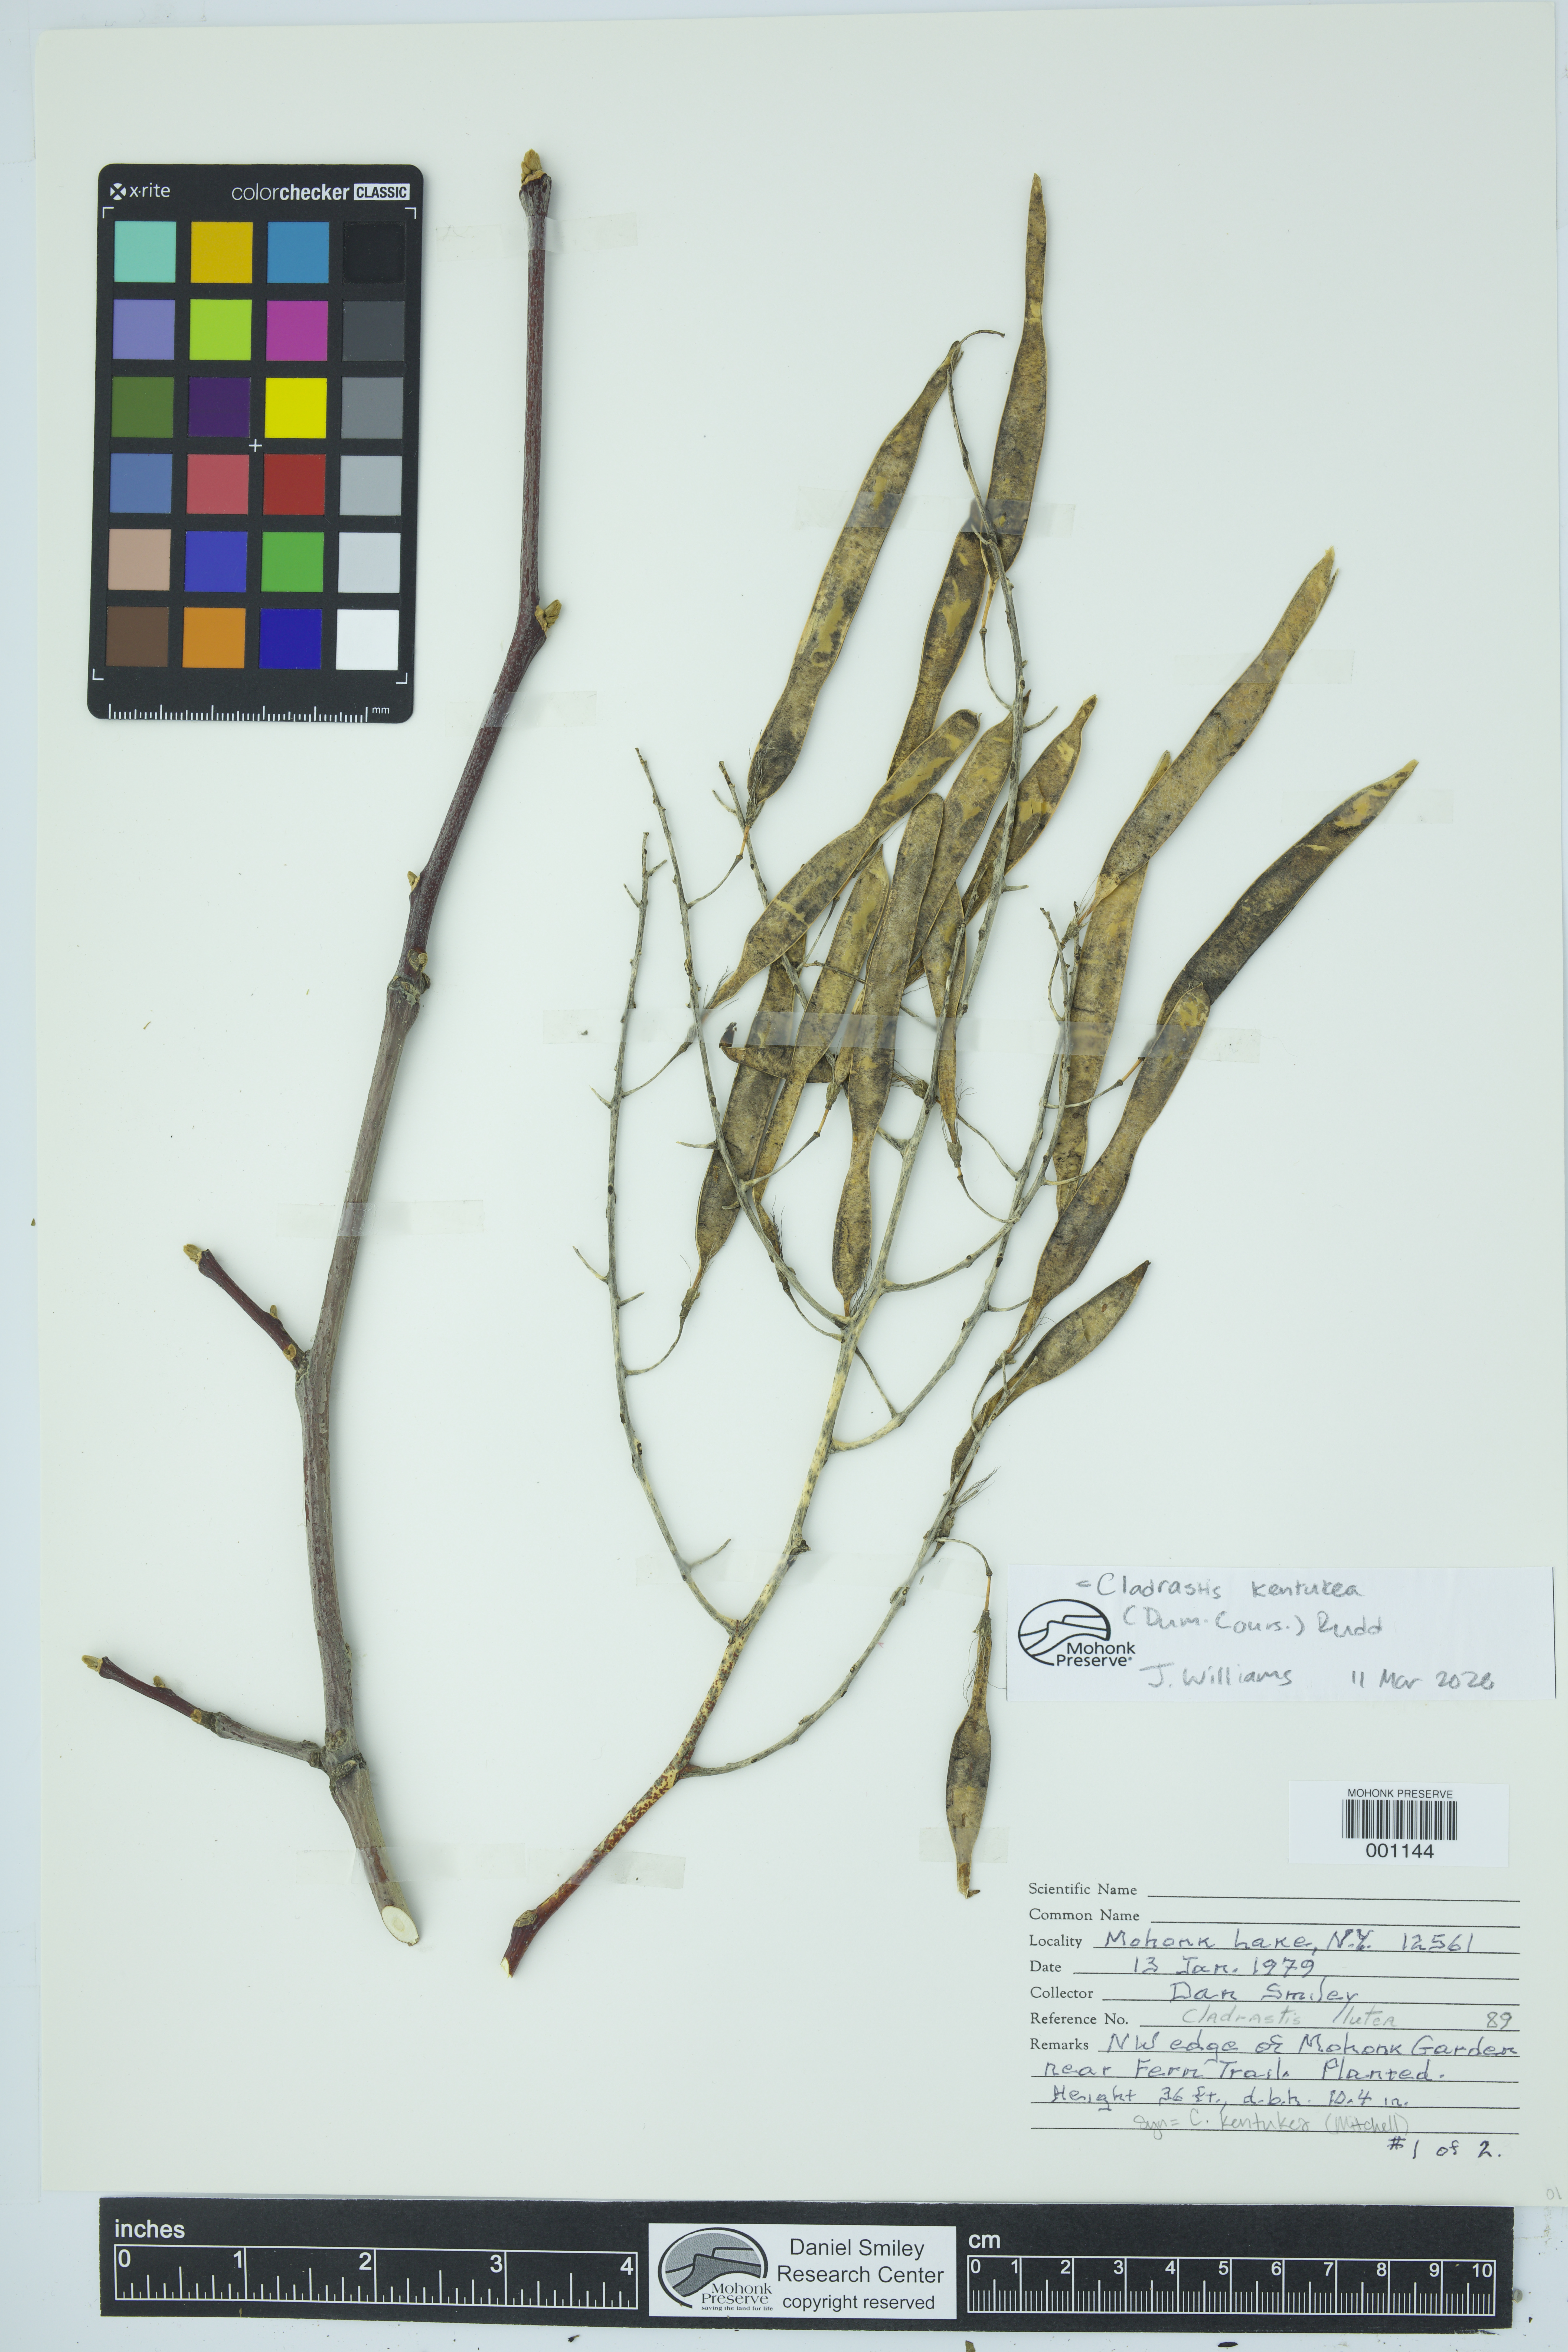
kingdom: Plantae
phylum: Tracheophyta
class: Magnoliopsida
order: Fabales
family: Fabaceae
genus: Cladrastis
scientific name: Cladrastis kentukea
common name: Kentucky yellow-wood
